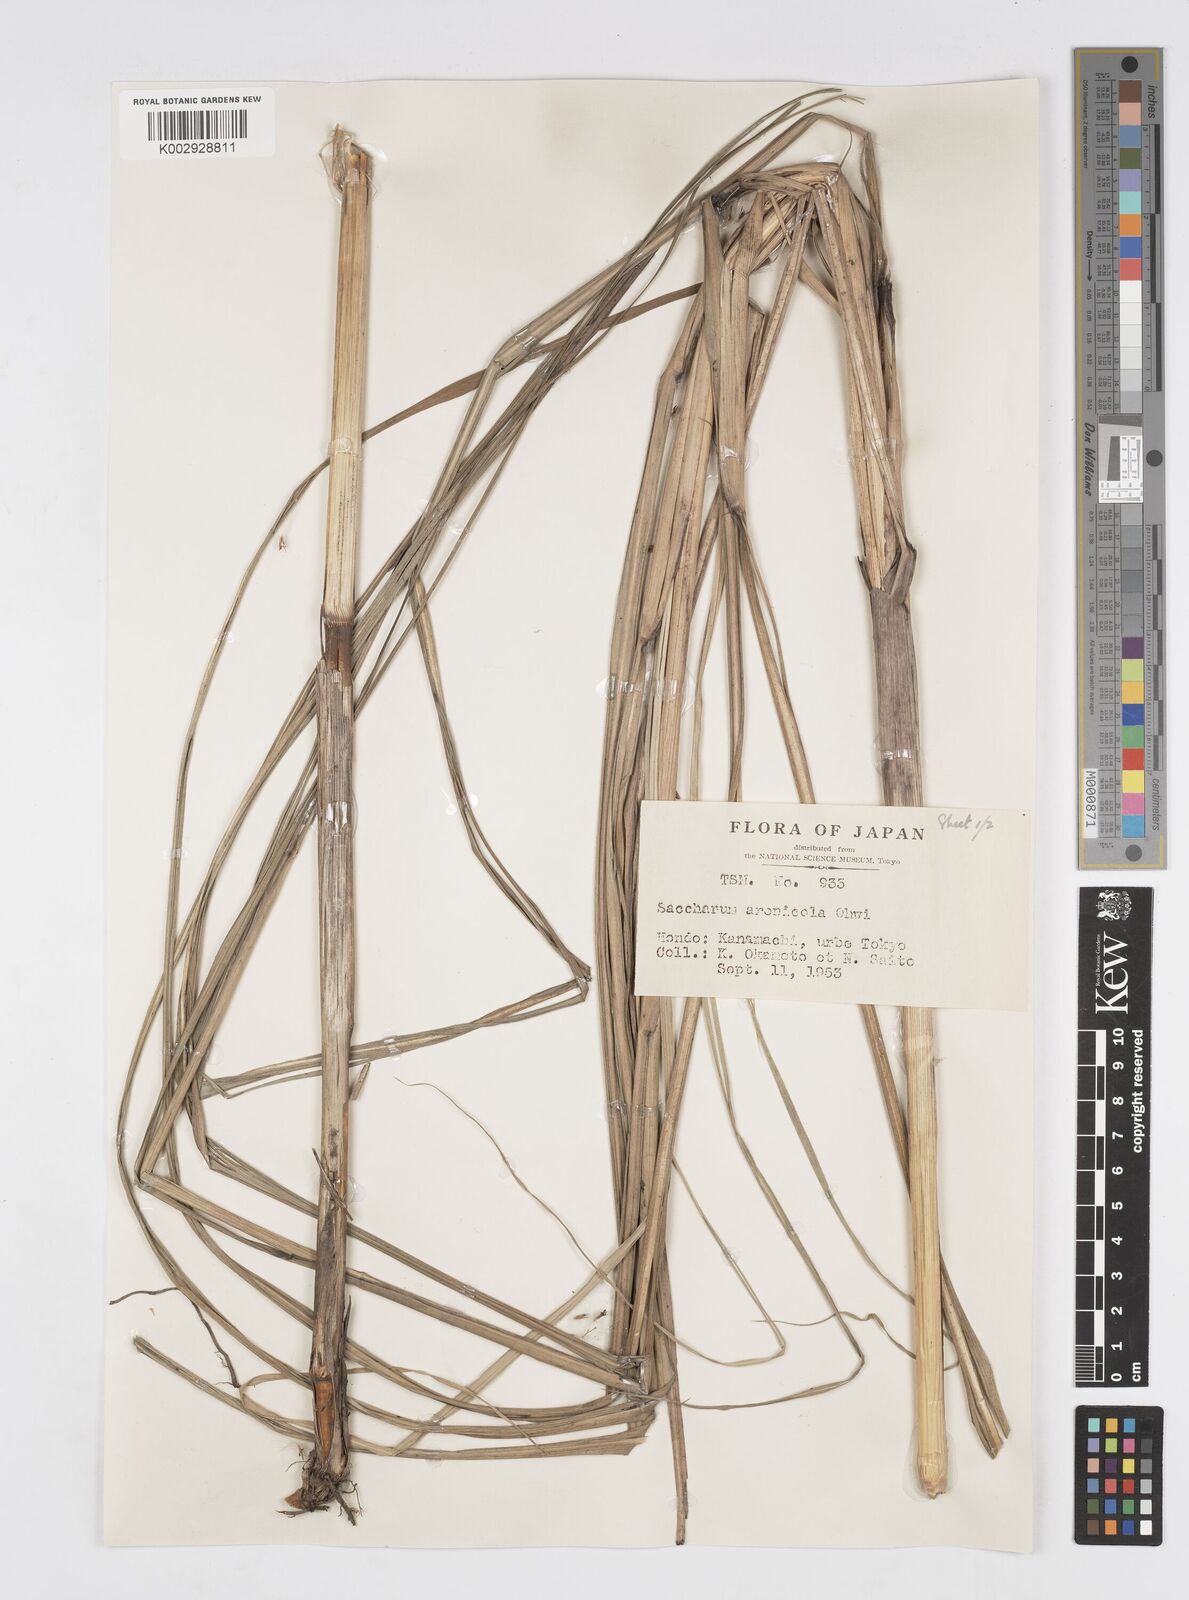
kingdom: Plantae
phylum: Tracheophyta
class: Liliopsida
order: Poales
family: Poaceae
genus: Saccharum
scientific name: Saccharum spontaneum
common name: Wild sugarcane
